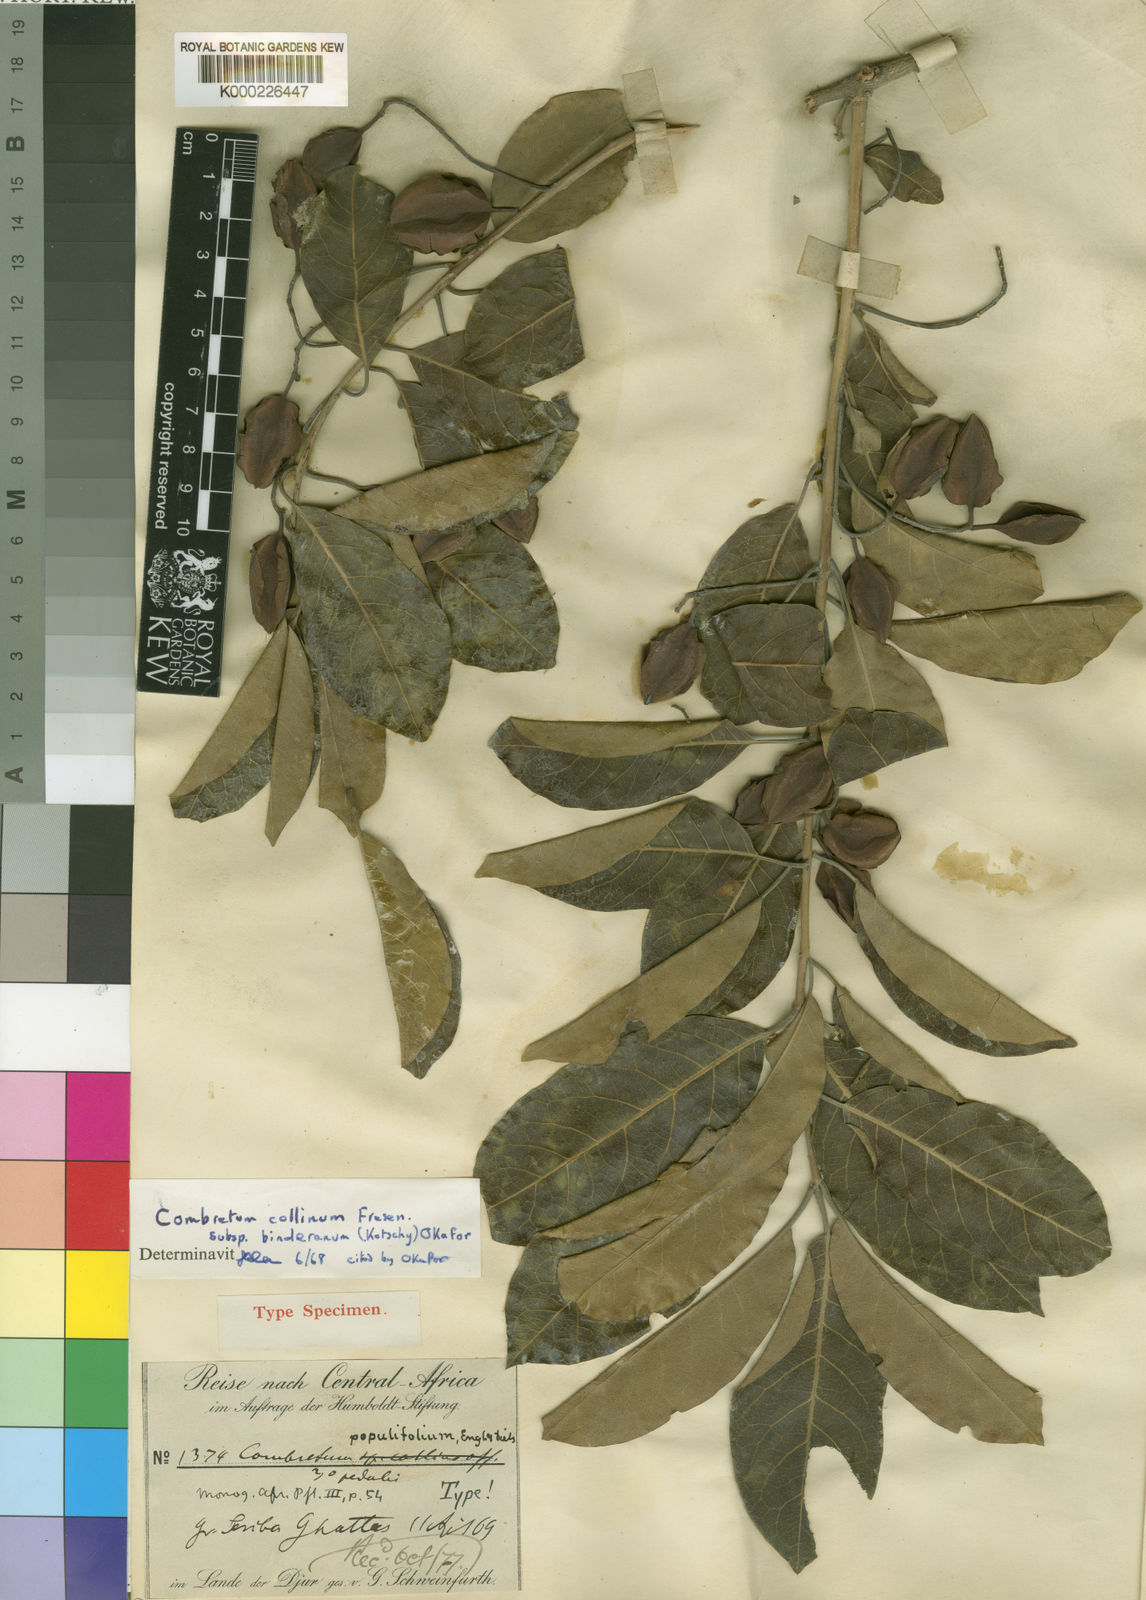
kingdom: Plantae
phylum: Tracheophyta
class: Magnoliopsida
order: Myrtales
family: Combretaceae
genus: Combretum
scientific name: Combretum collinum
